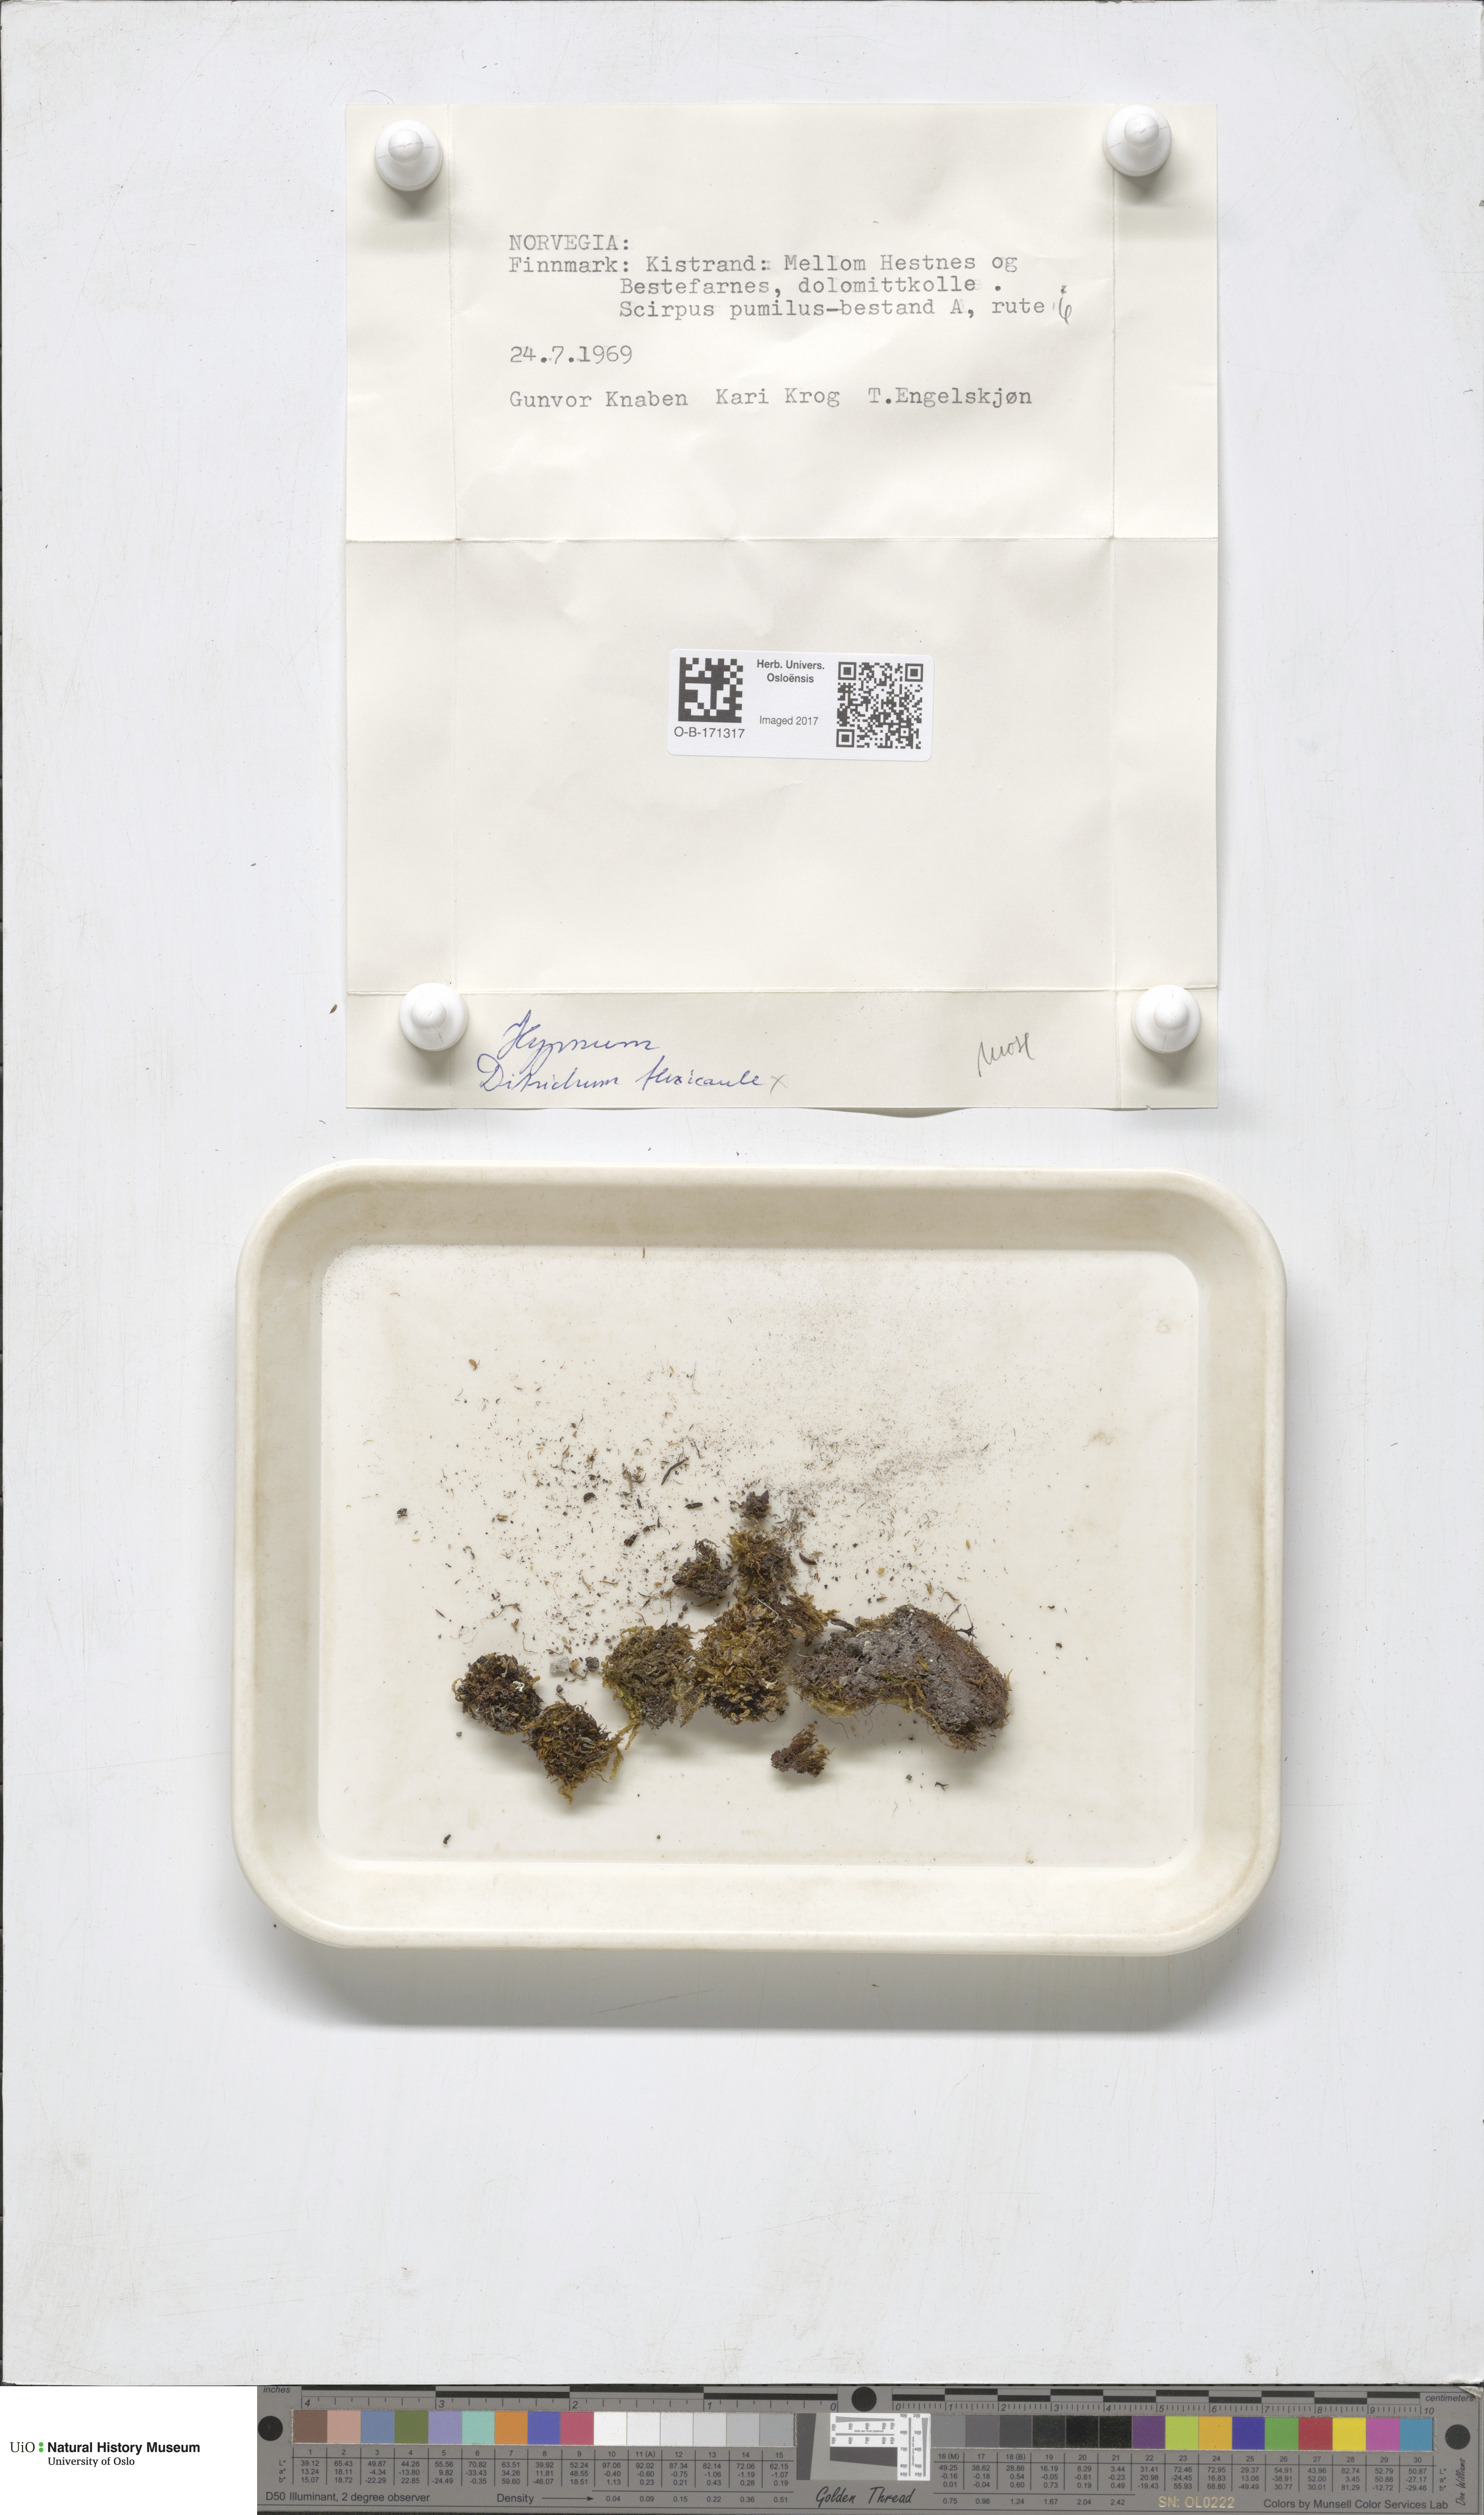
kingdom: Plantae
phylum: Bryophyta
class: Bryopsida
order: Scouleriales
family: Flexitrichaceae
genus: Flexitrichum
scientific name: Flexitrichum flexicaule
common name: Bendy ditrichum
